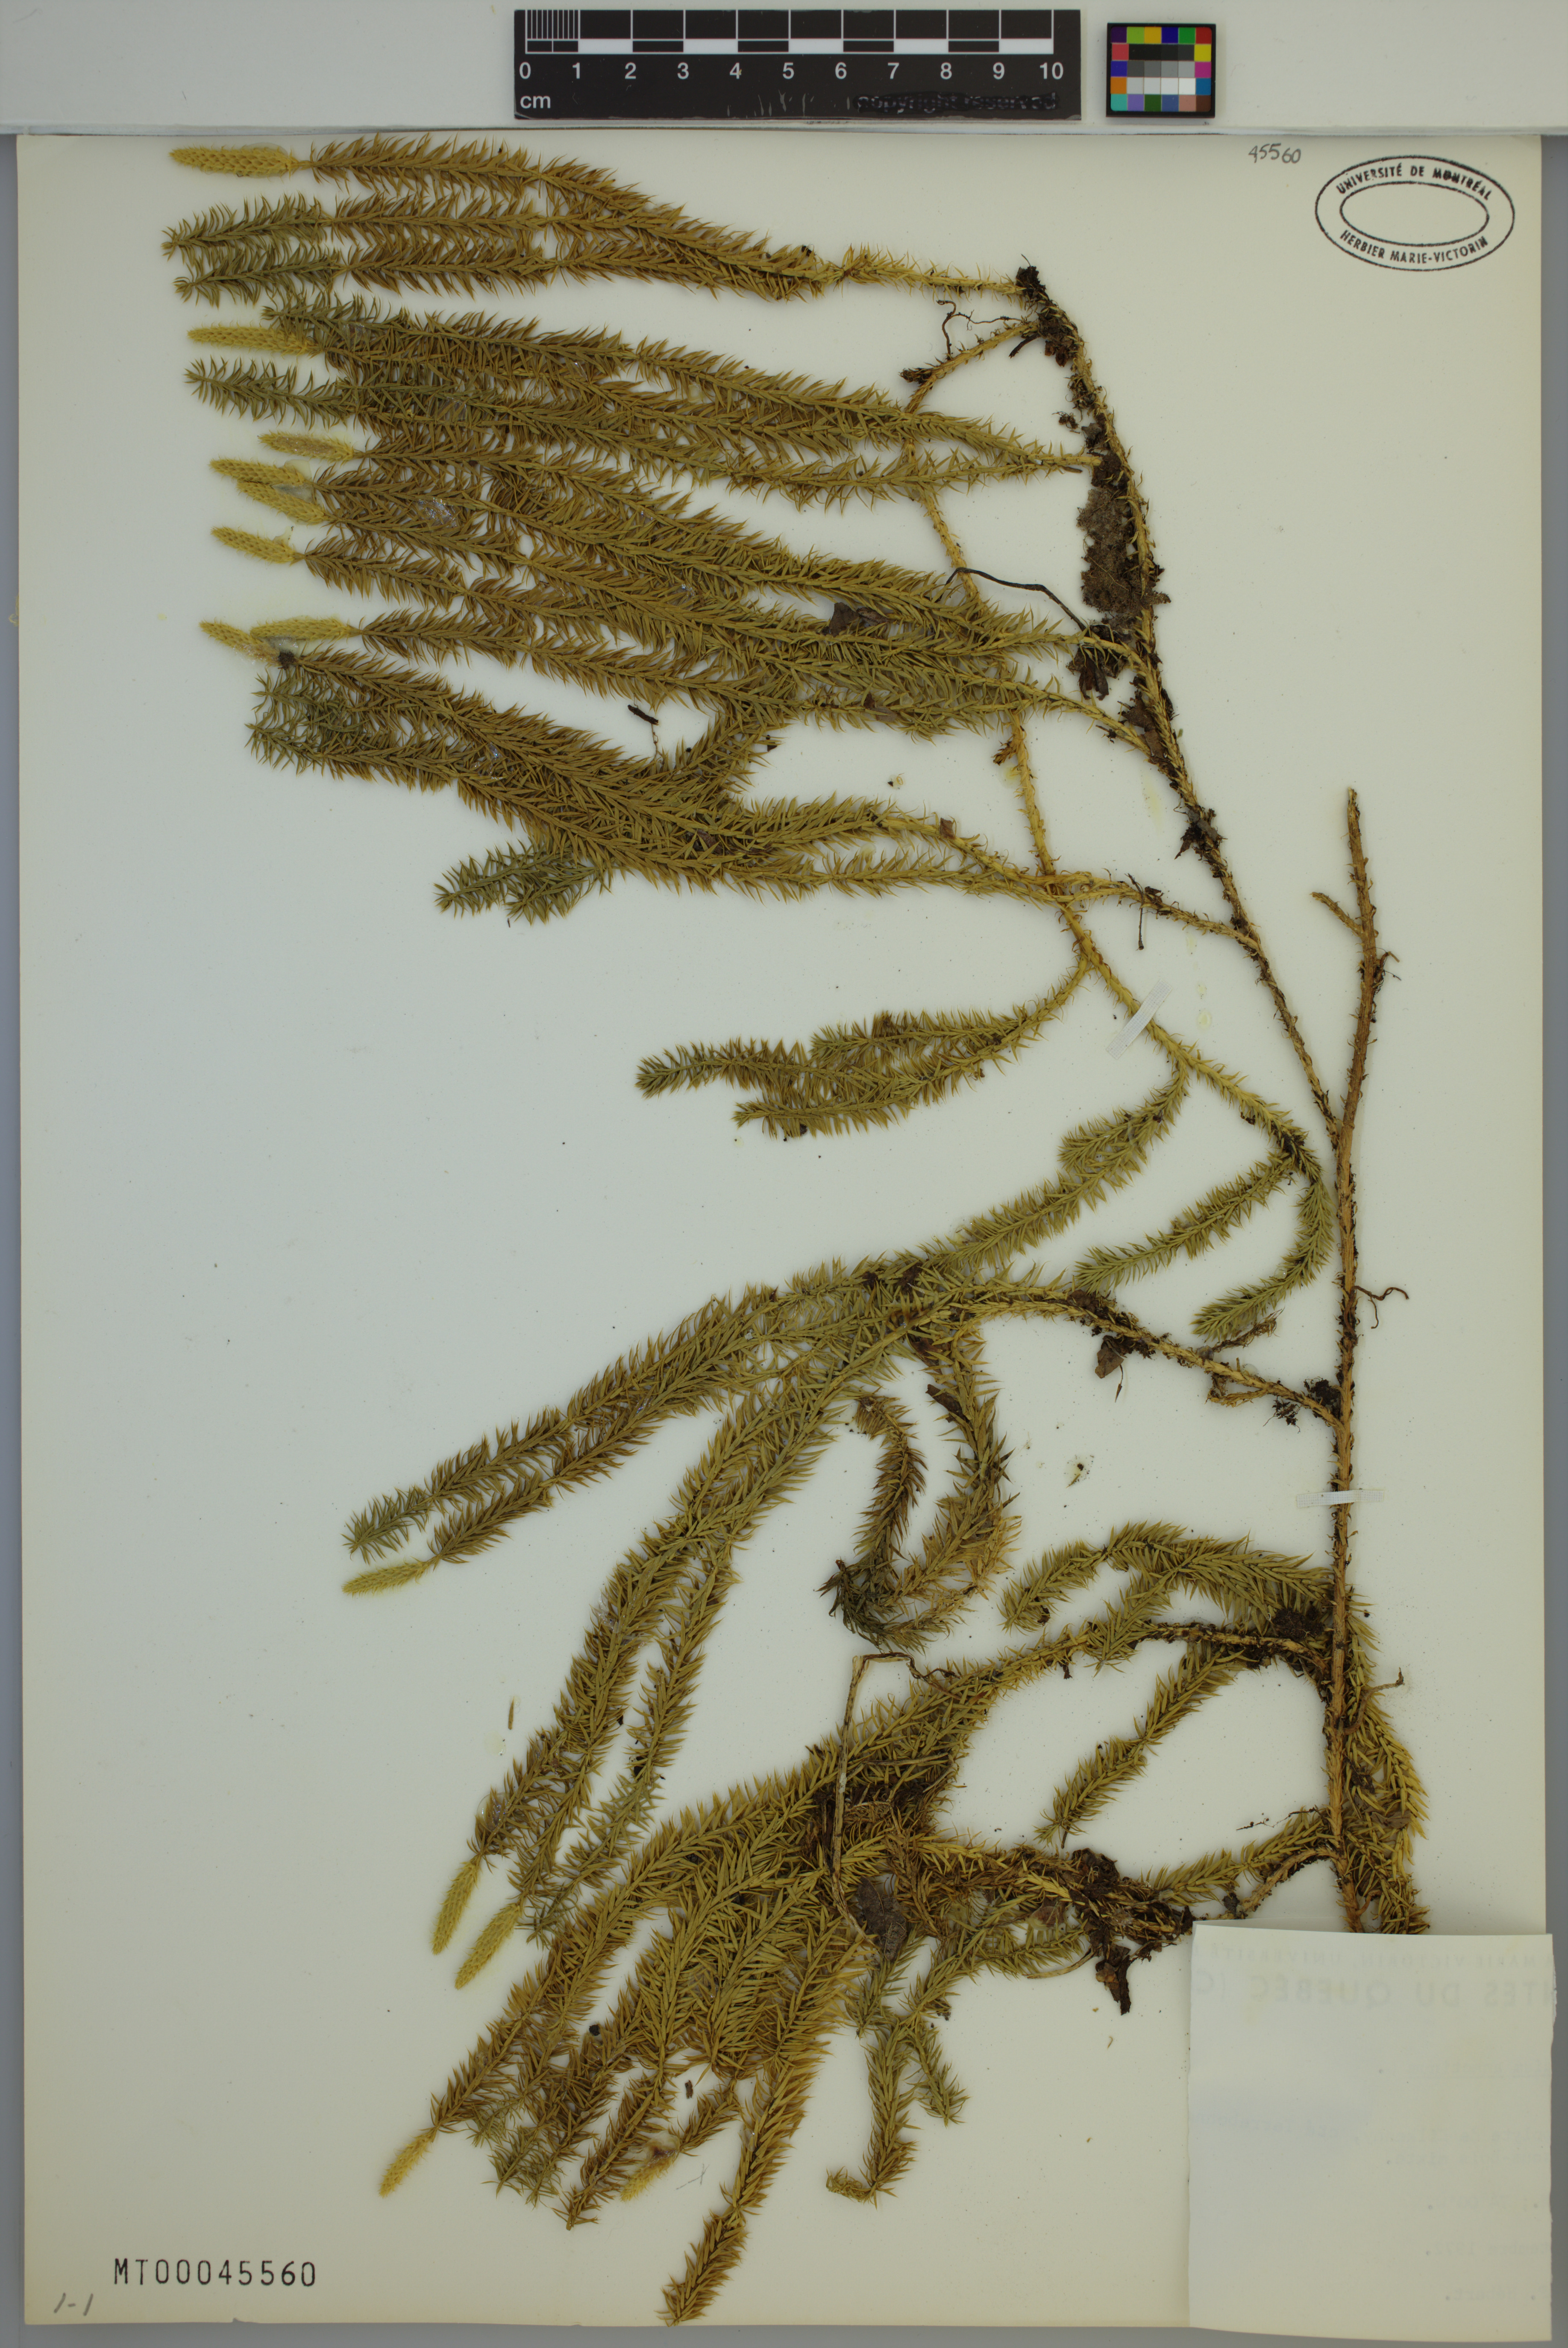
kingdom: Plantae
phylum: Tracheophyta
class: Lycopodiopsida
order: Lycopodiales
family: Lycopodiaceae
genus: Spinulum
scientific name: Spinulum annotinum
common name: Interrupted club-moss
